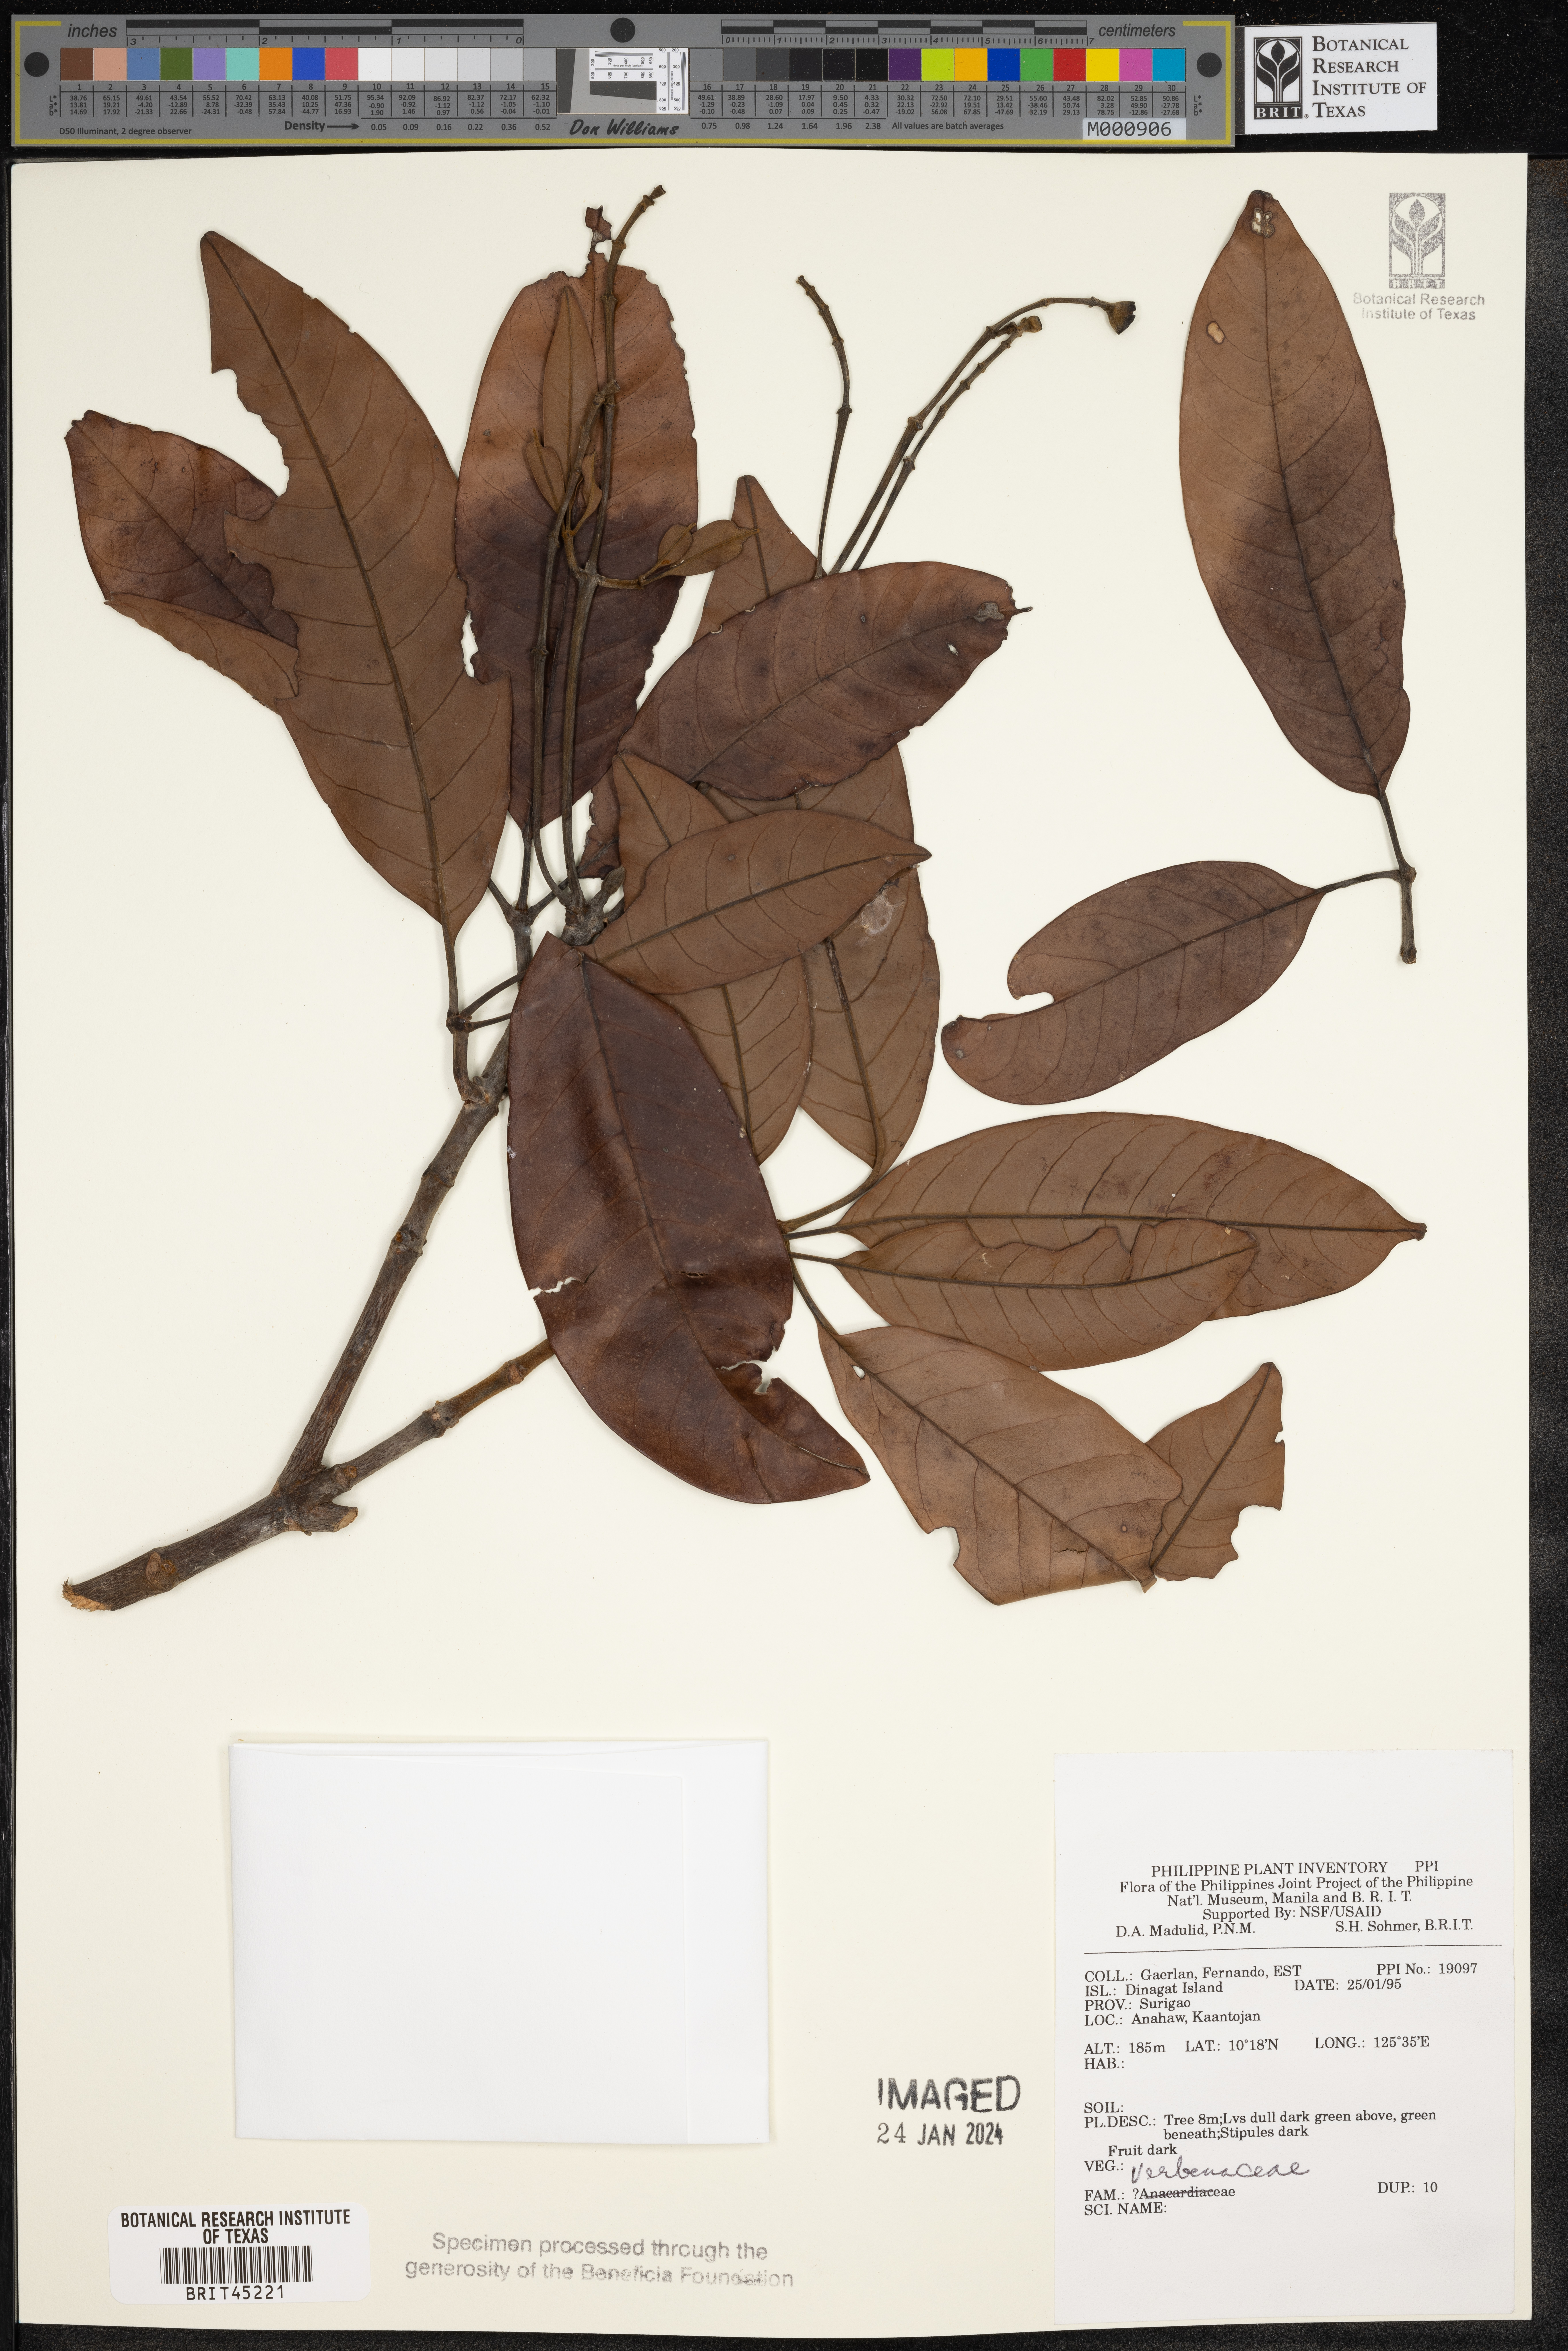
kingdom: Plantae
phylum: Tracheophyta
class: Magnoliopsida
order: Lamiales
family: Verbenaceae
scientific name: Verbenaceae
